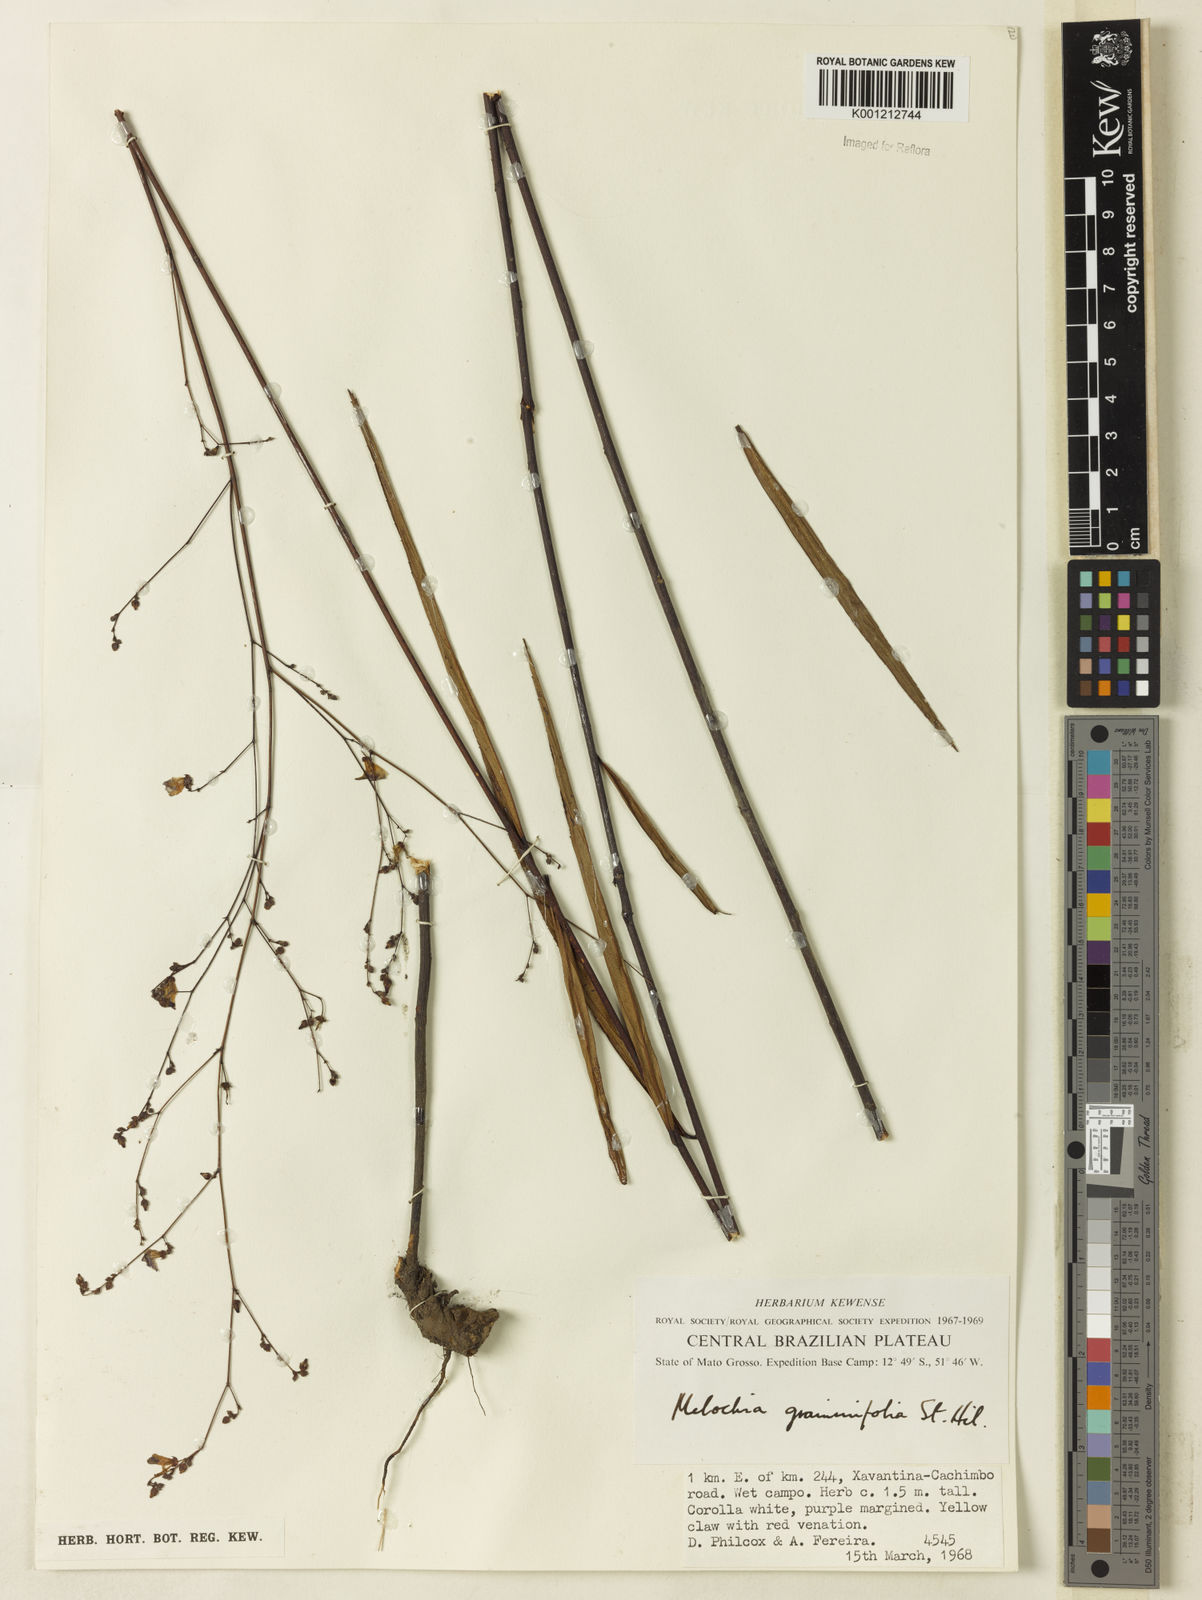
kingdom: Plantae
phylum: Tracheophyta
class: Magnoliopsida
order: Malvales
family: Malvaceae
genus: Melochia
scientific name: Melochia graminifolia
